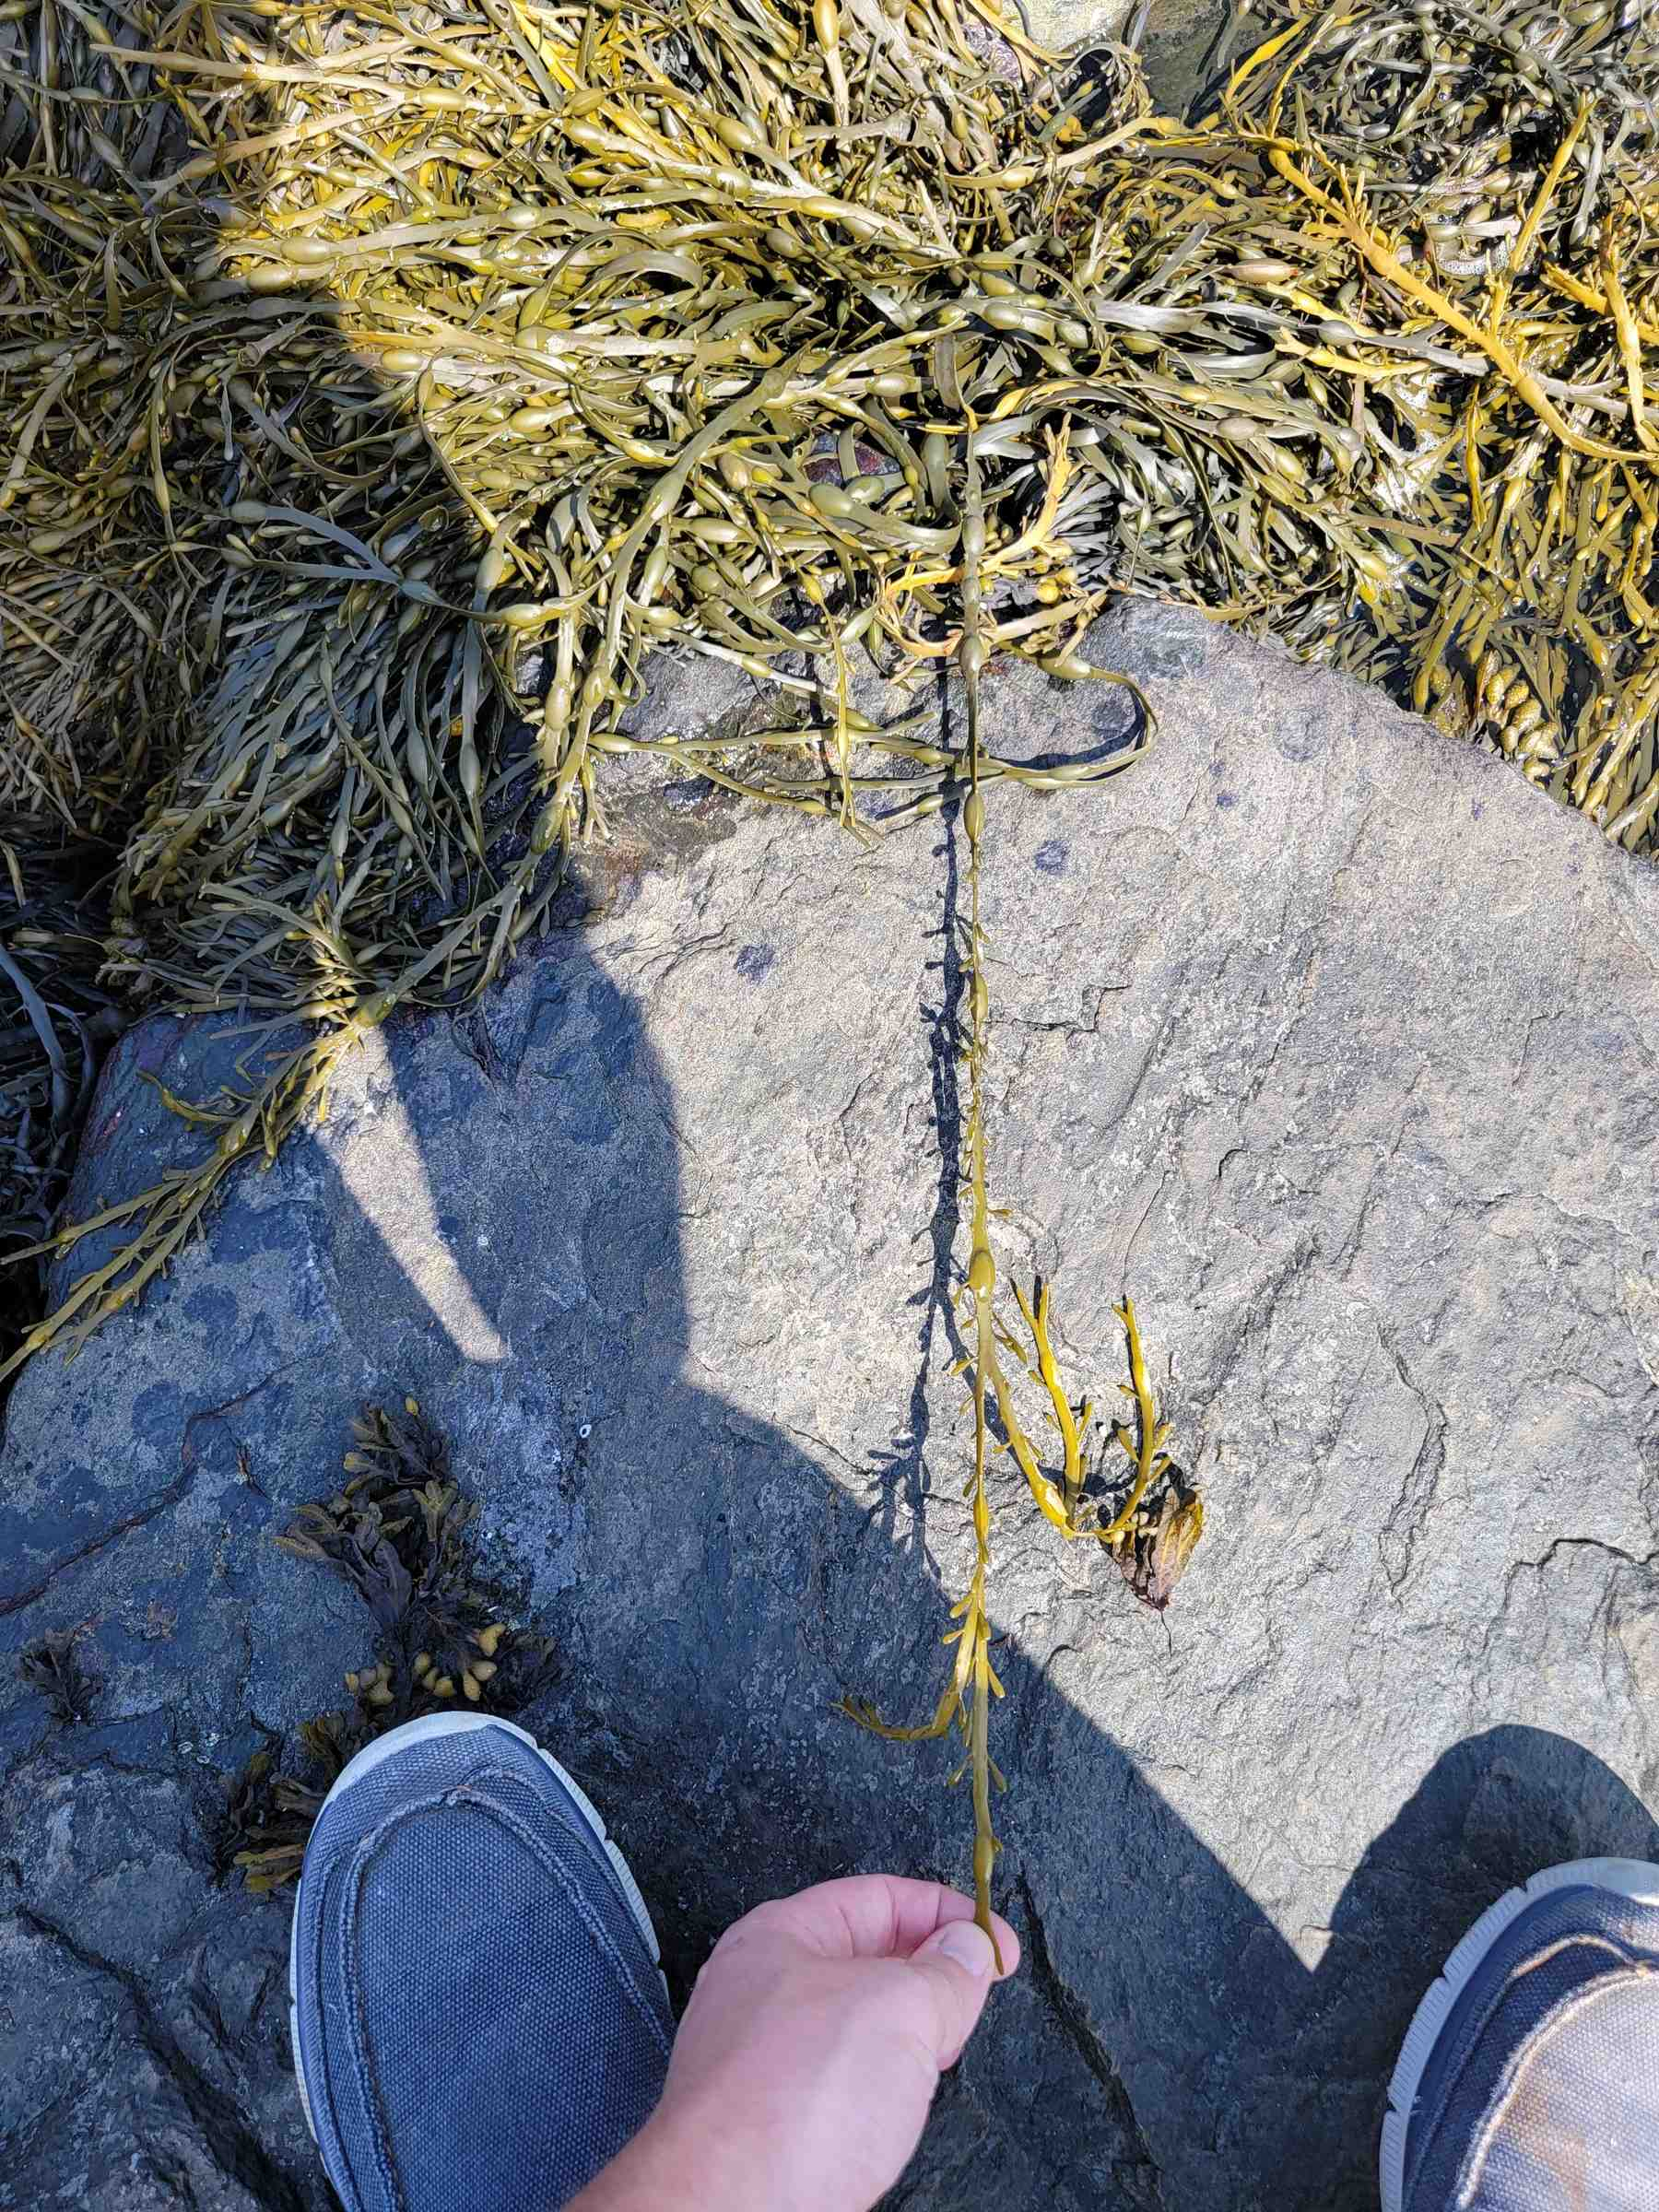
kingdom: Chromista
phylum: Ochrophyta
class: Phaeophyceae
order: Fucales
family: Fucaceae
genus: Ascophyllum
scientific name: Ascophyllum nodosum
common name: Rockweed
